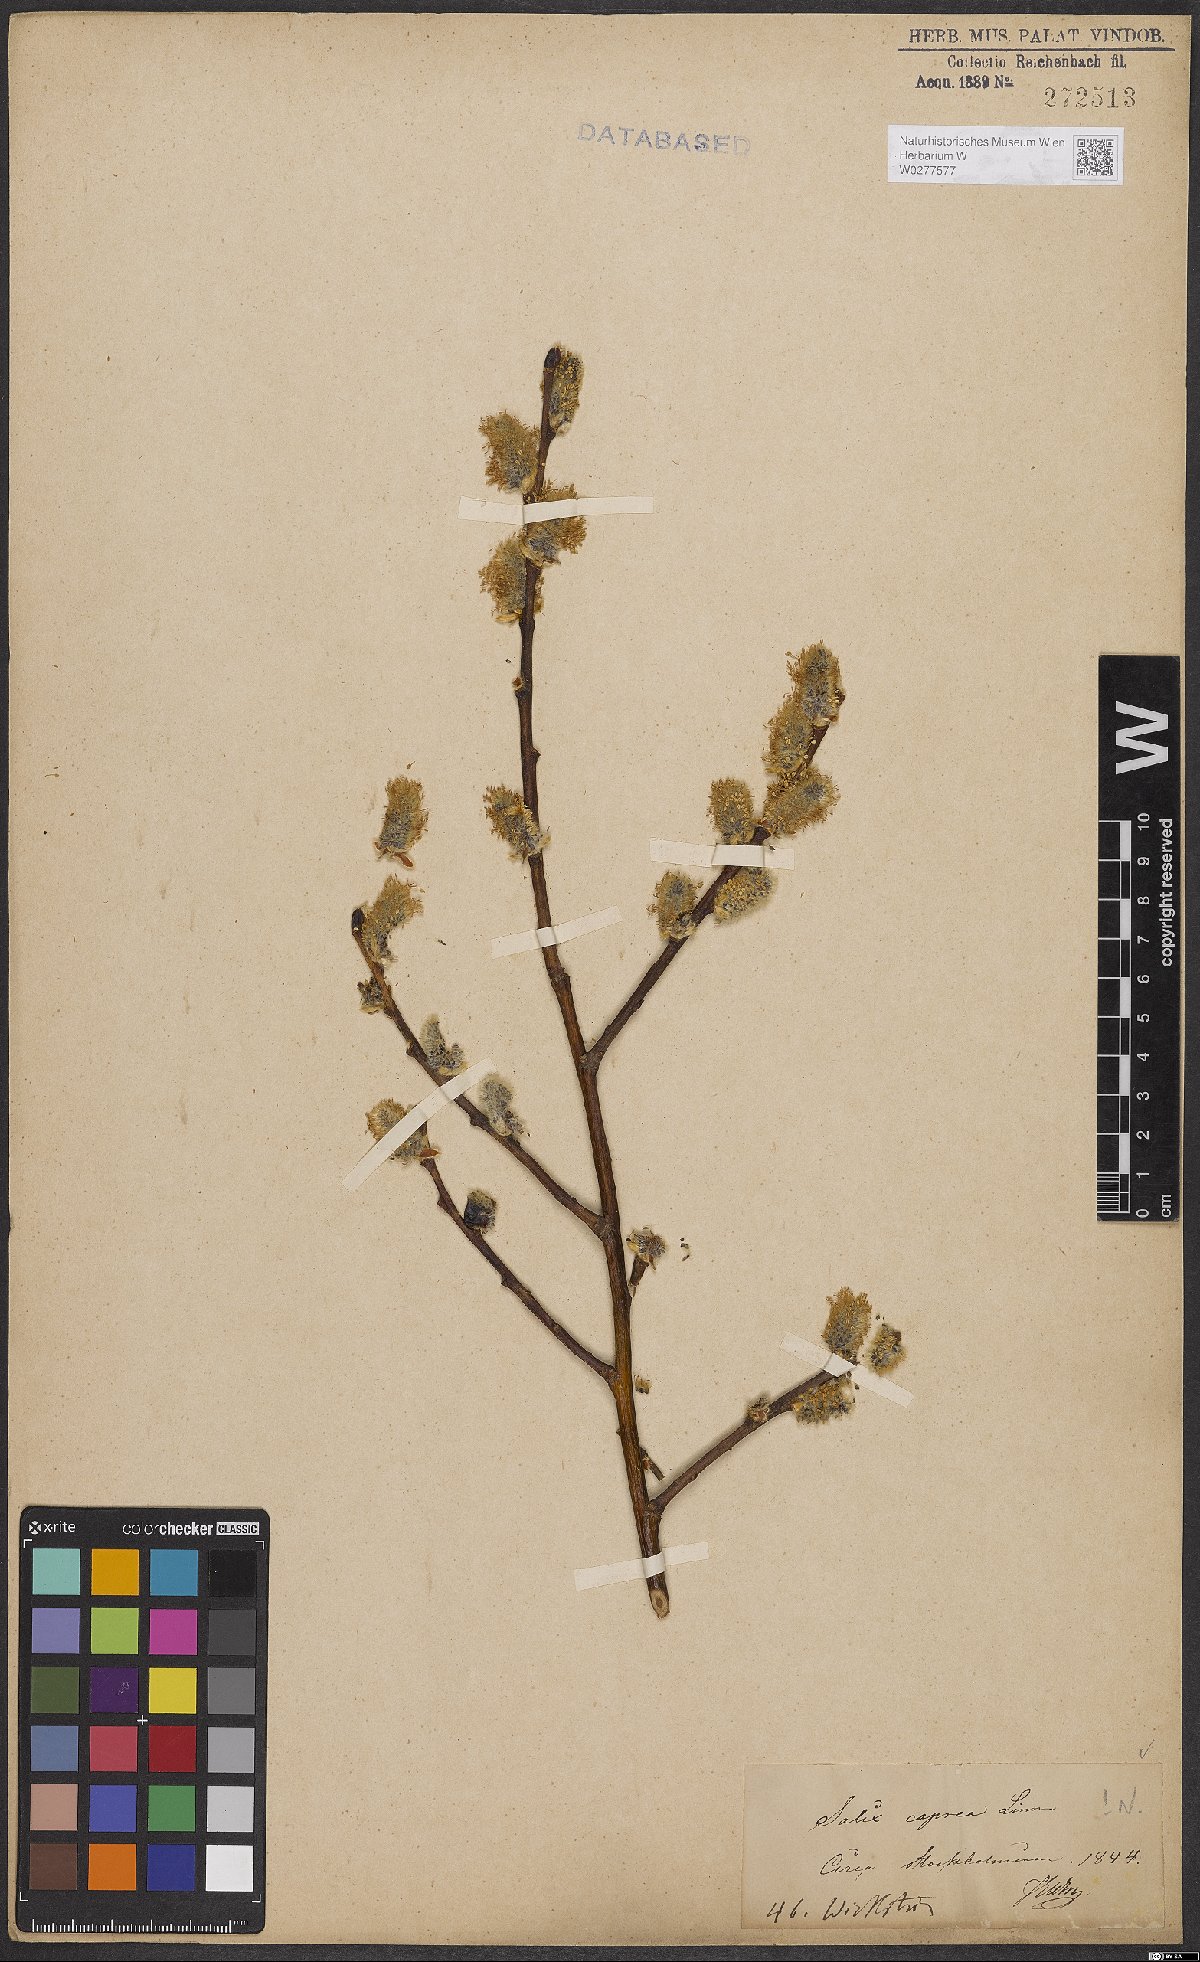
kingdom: Plantae
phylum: Tracheophyta
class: Magnoliopsida
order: Malpighiales
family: Salicaceae
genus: Salix
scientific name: Salix caprea
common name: Goat willow
